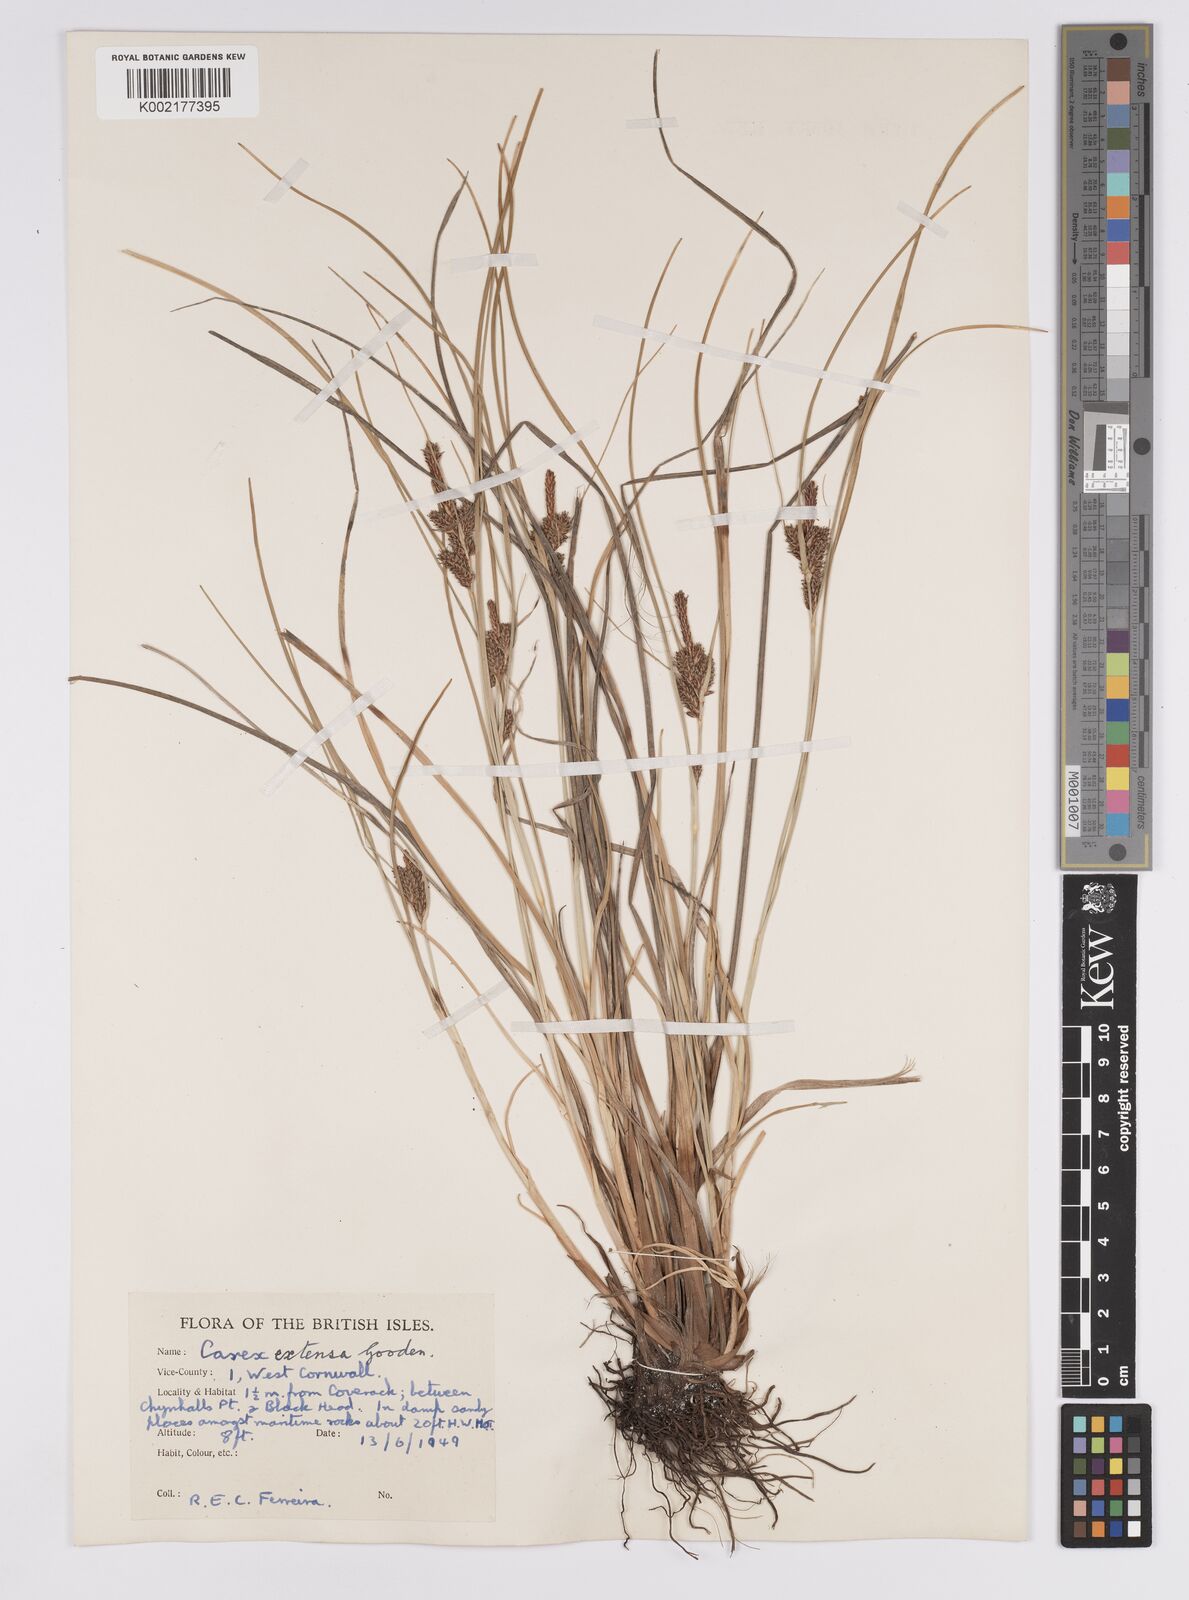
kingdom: Plantae
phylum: Tracheophyta
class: Liliopsida
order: Poales
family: Cyperaceae
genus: Carex
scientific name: Carex extensa
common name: Long-bracted sedge
